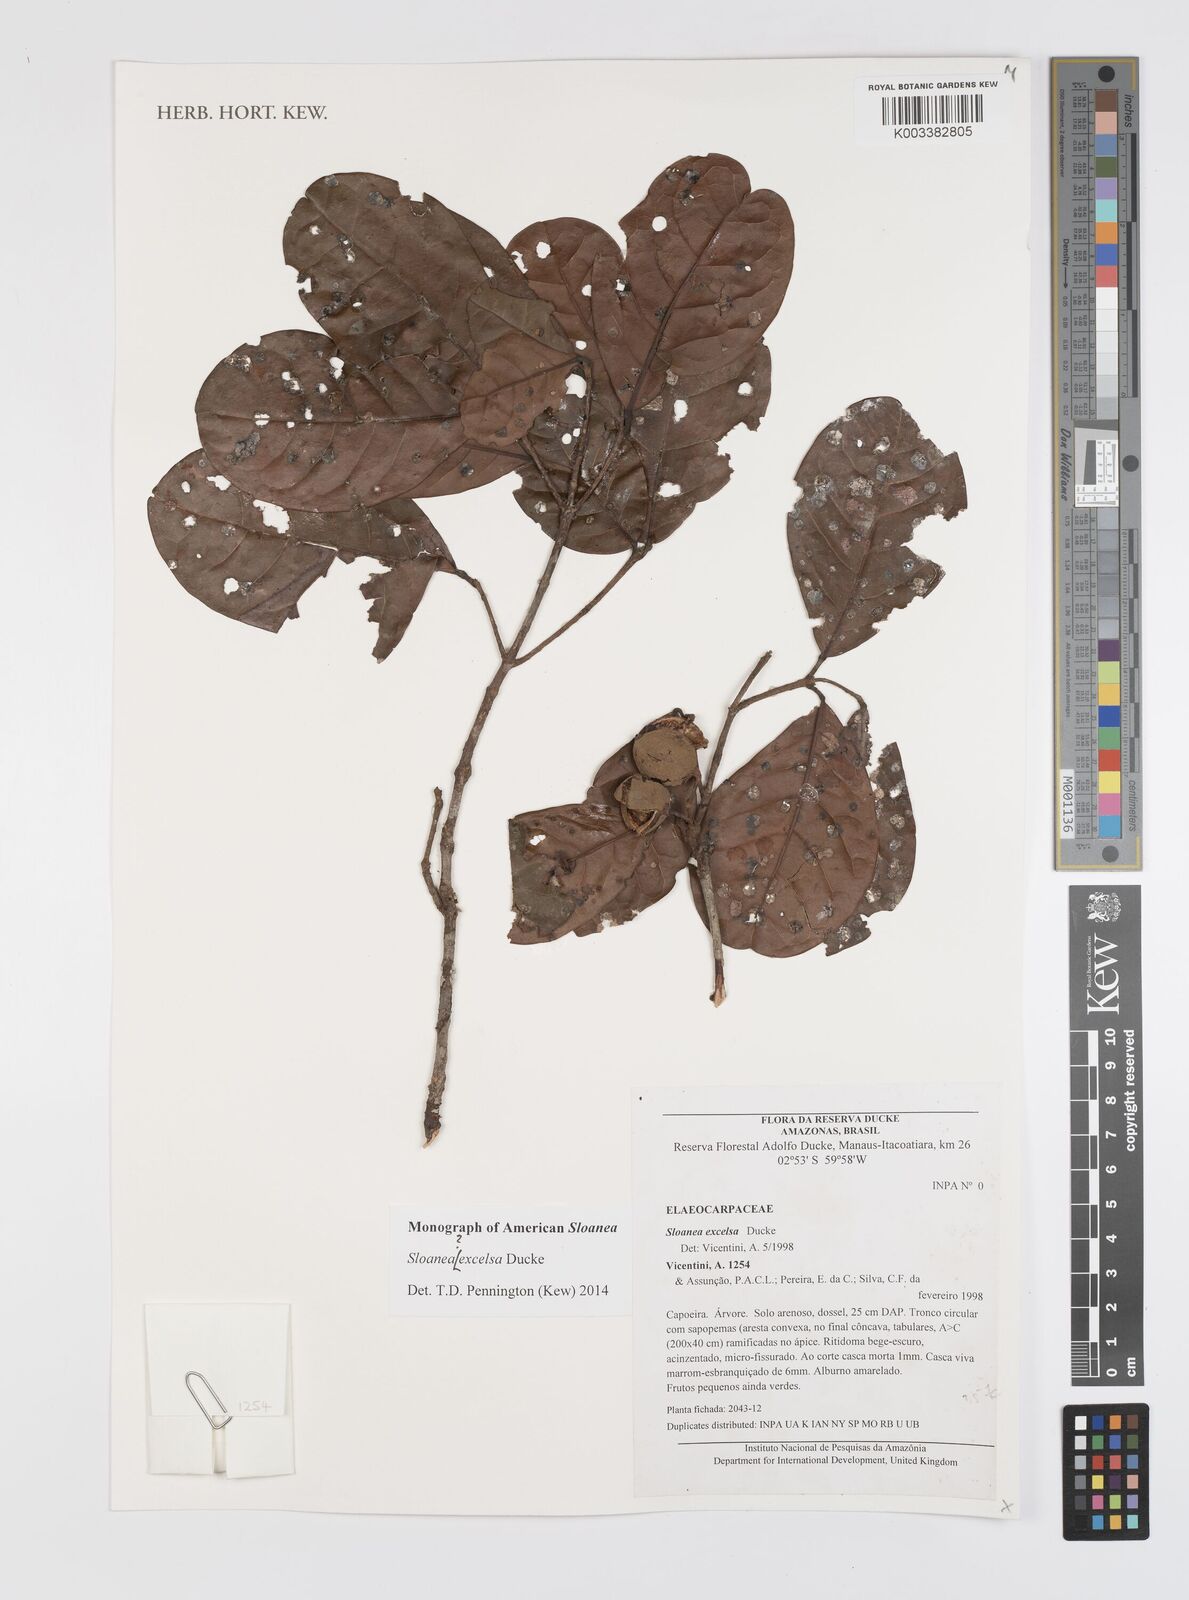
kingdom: Plantae
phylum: Tracheophyta
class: Magnoliopsida
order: Oxalidales
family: Elaeocarpaceae
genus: Sloanea
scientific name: Sloanea laurifolia
